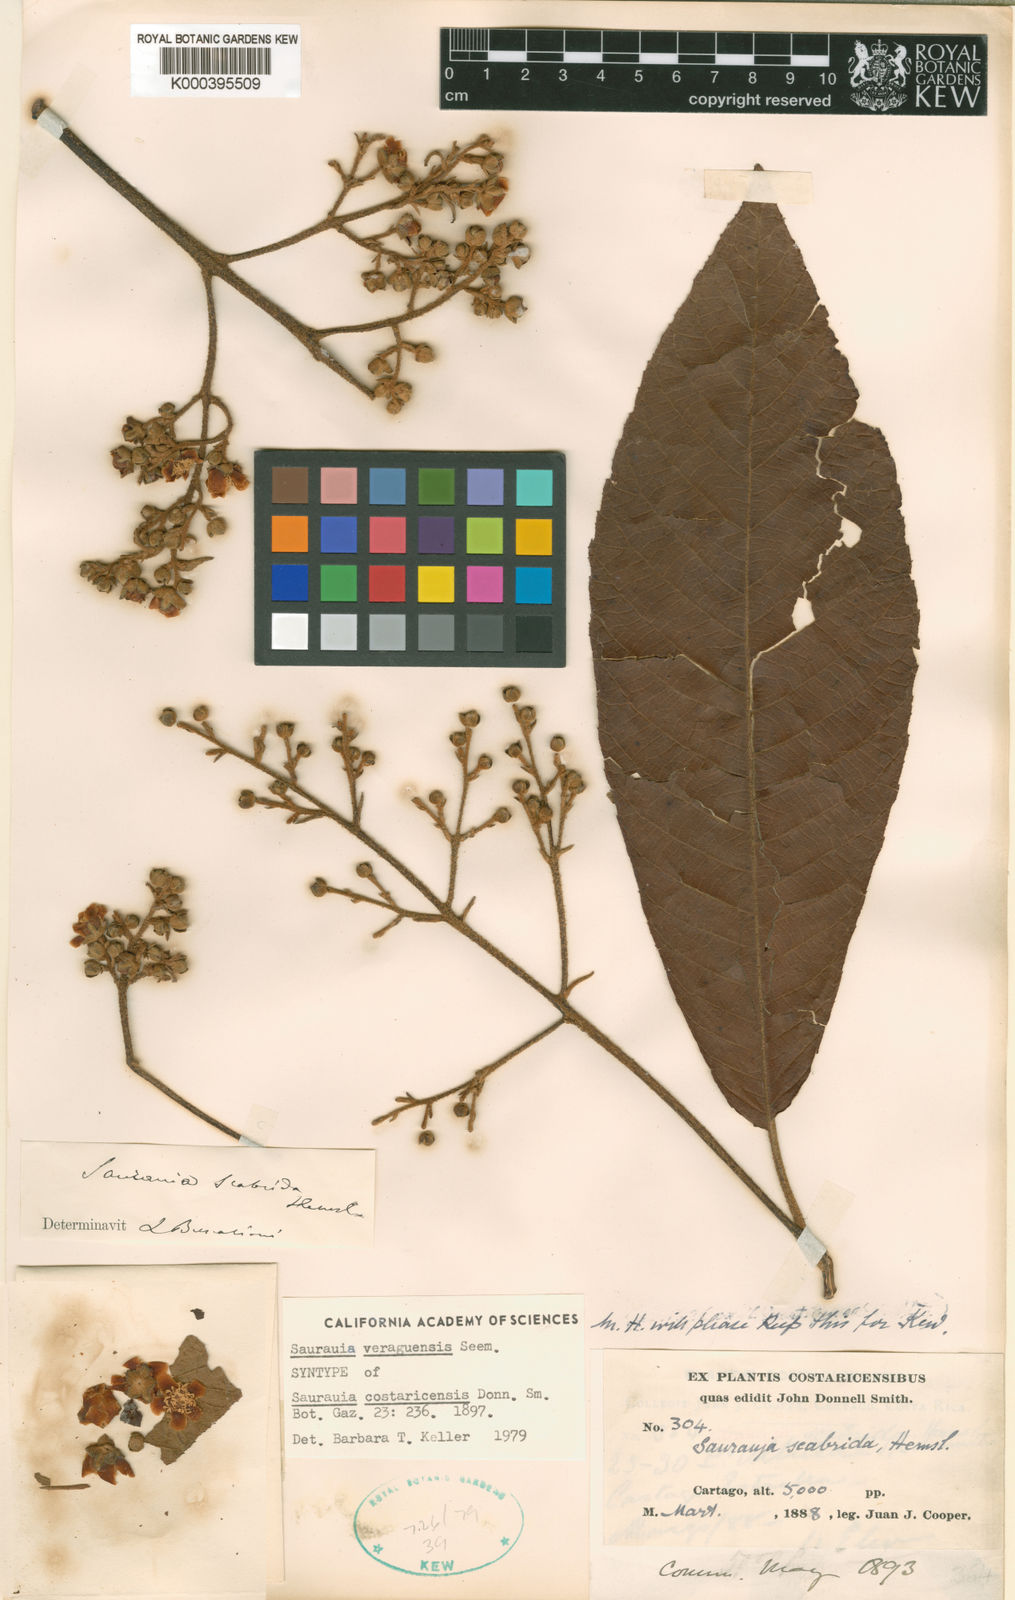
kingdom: Plantae
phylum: Tracheophyta
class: Magnoliopsida
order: Ericales
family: Actinidiaceae
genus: Saurauia
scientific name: Saurauia
